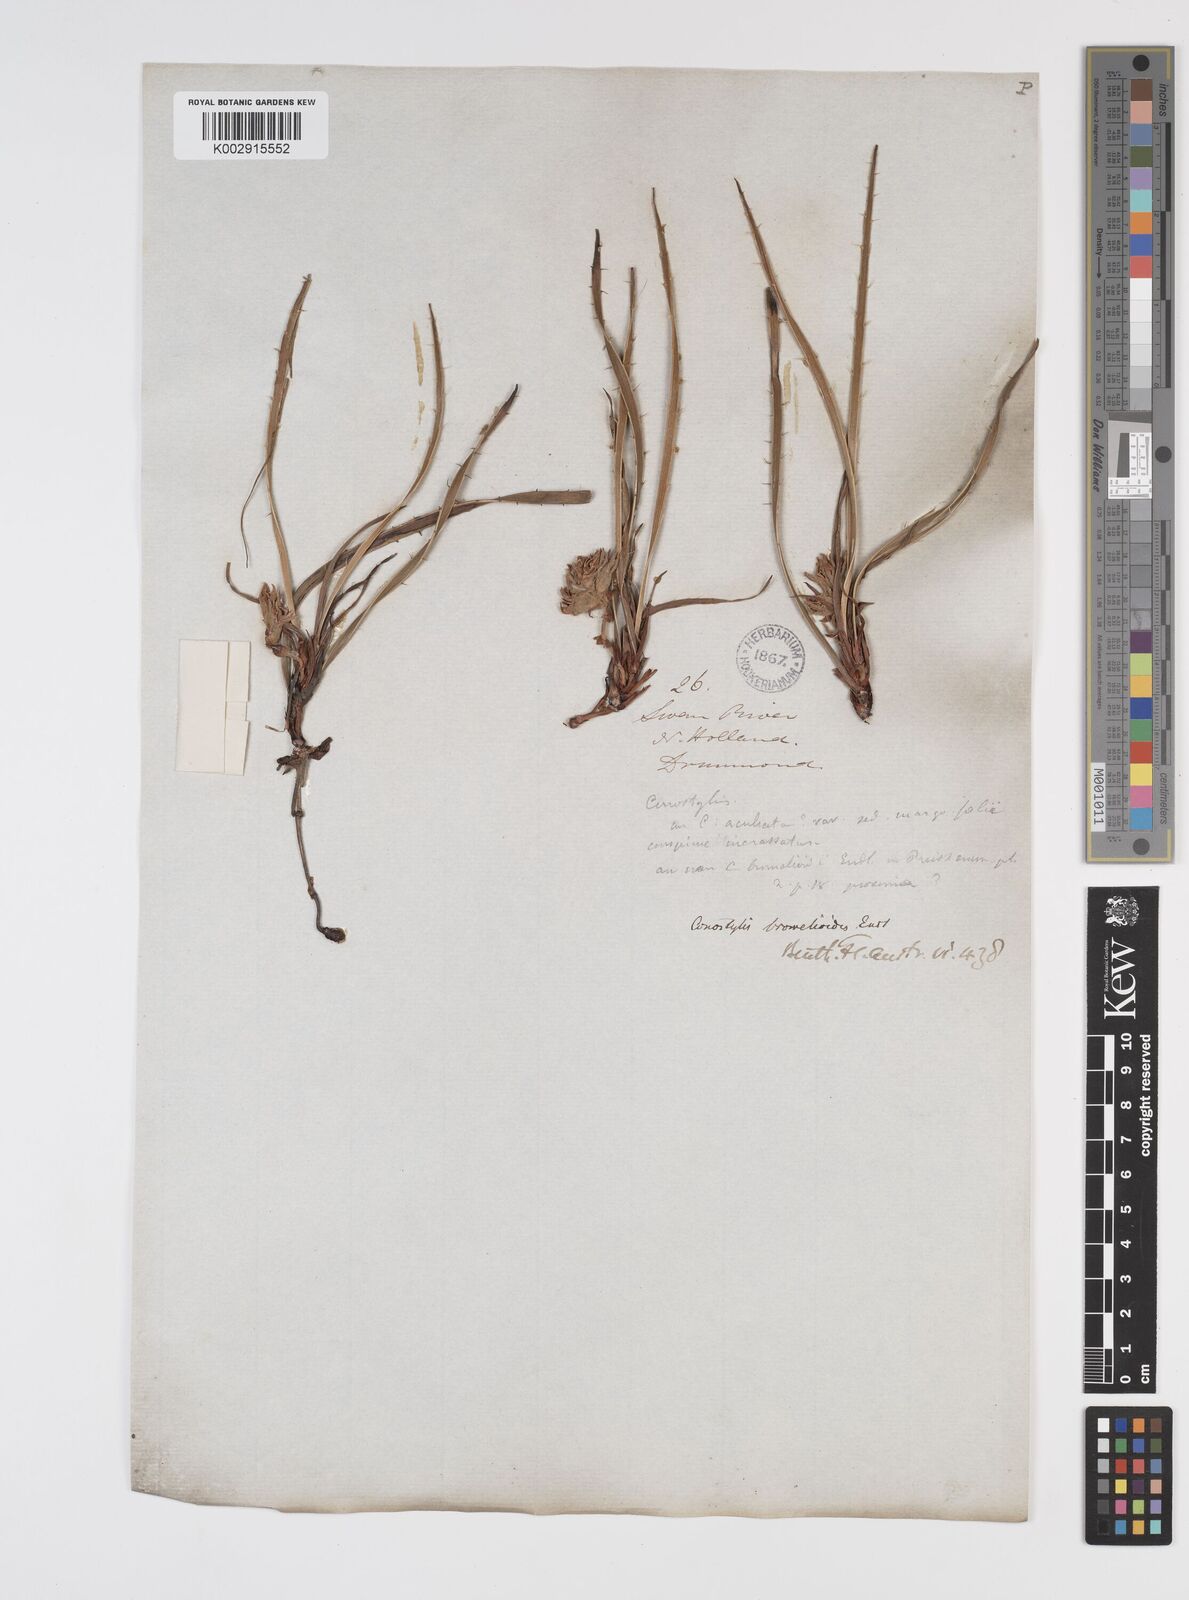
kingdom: Plantae
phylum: Tracheophyta
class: Liliopsida
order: Commelinales
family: Haemodoraceae
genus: Conostylis
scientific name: Conostylis aculeata
